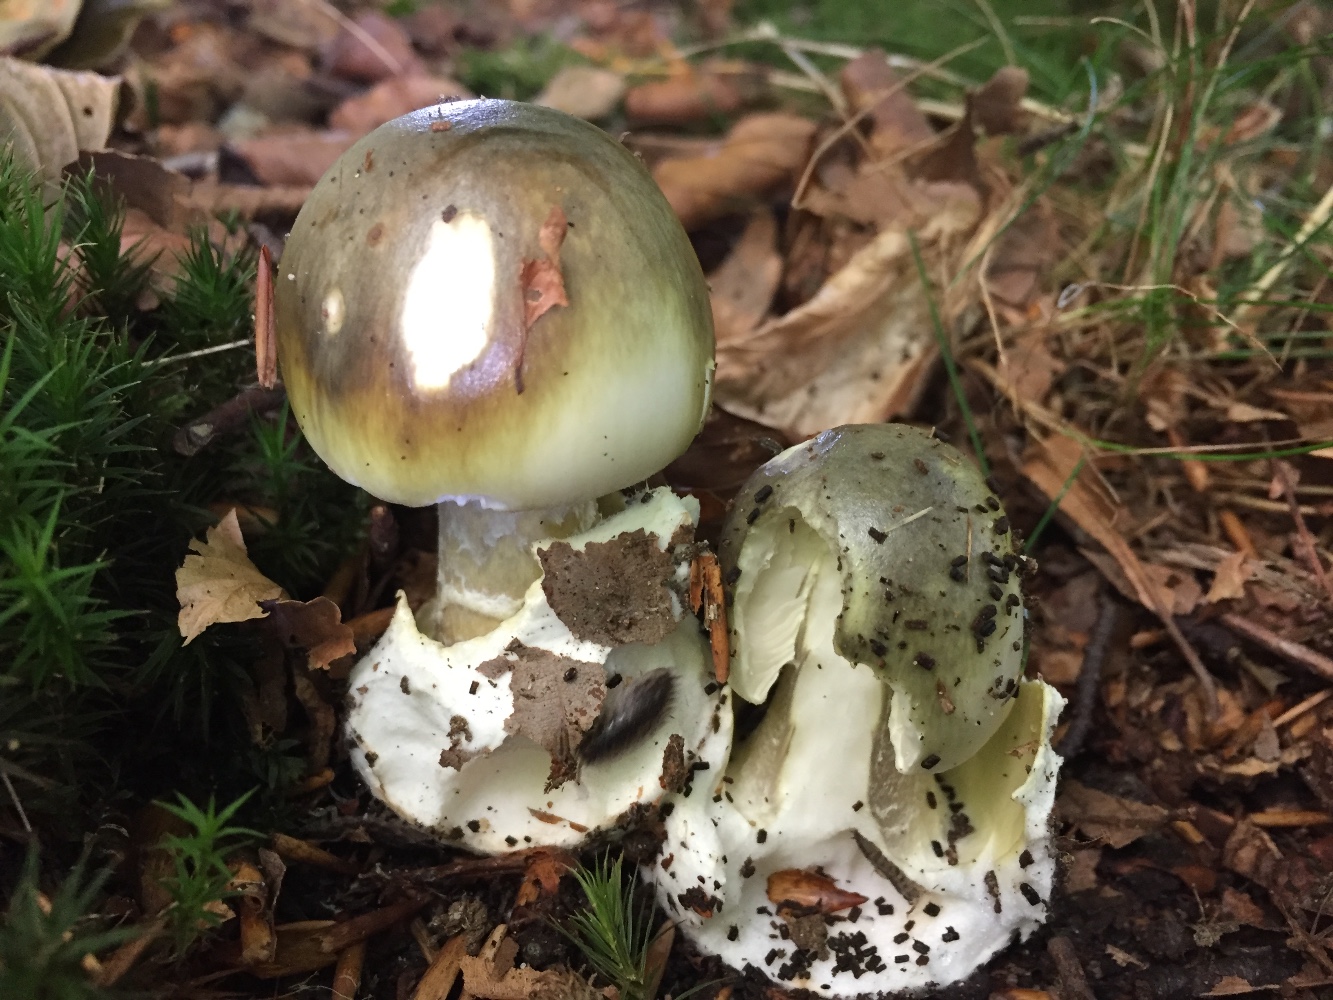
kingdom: Fungi
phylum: Basidiomycota
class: Agaricomycetes
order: Agaricales
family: Amanitaceae
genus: Amanita
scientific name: Amanita phalloides
